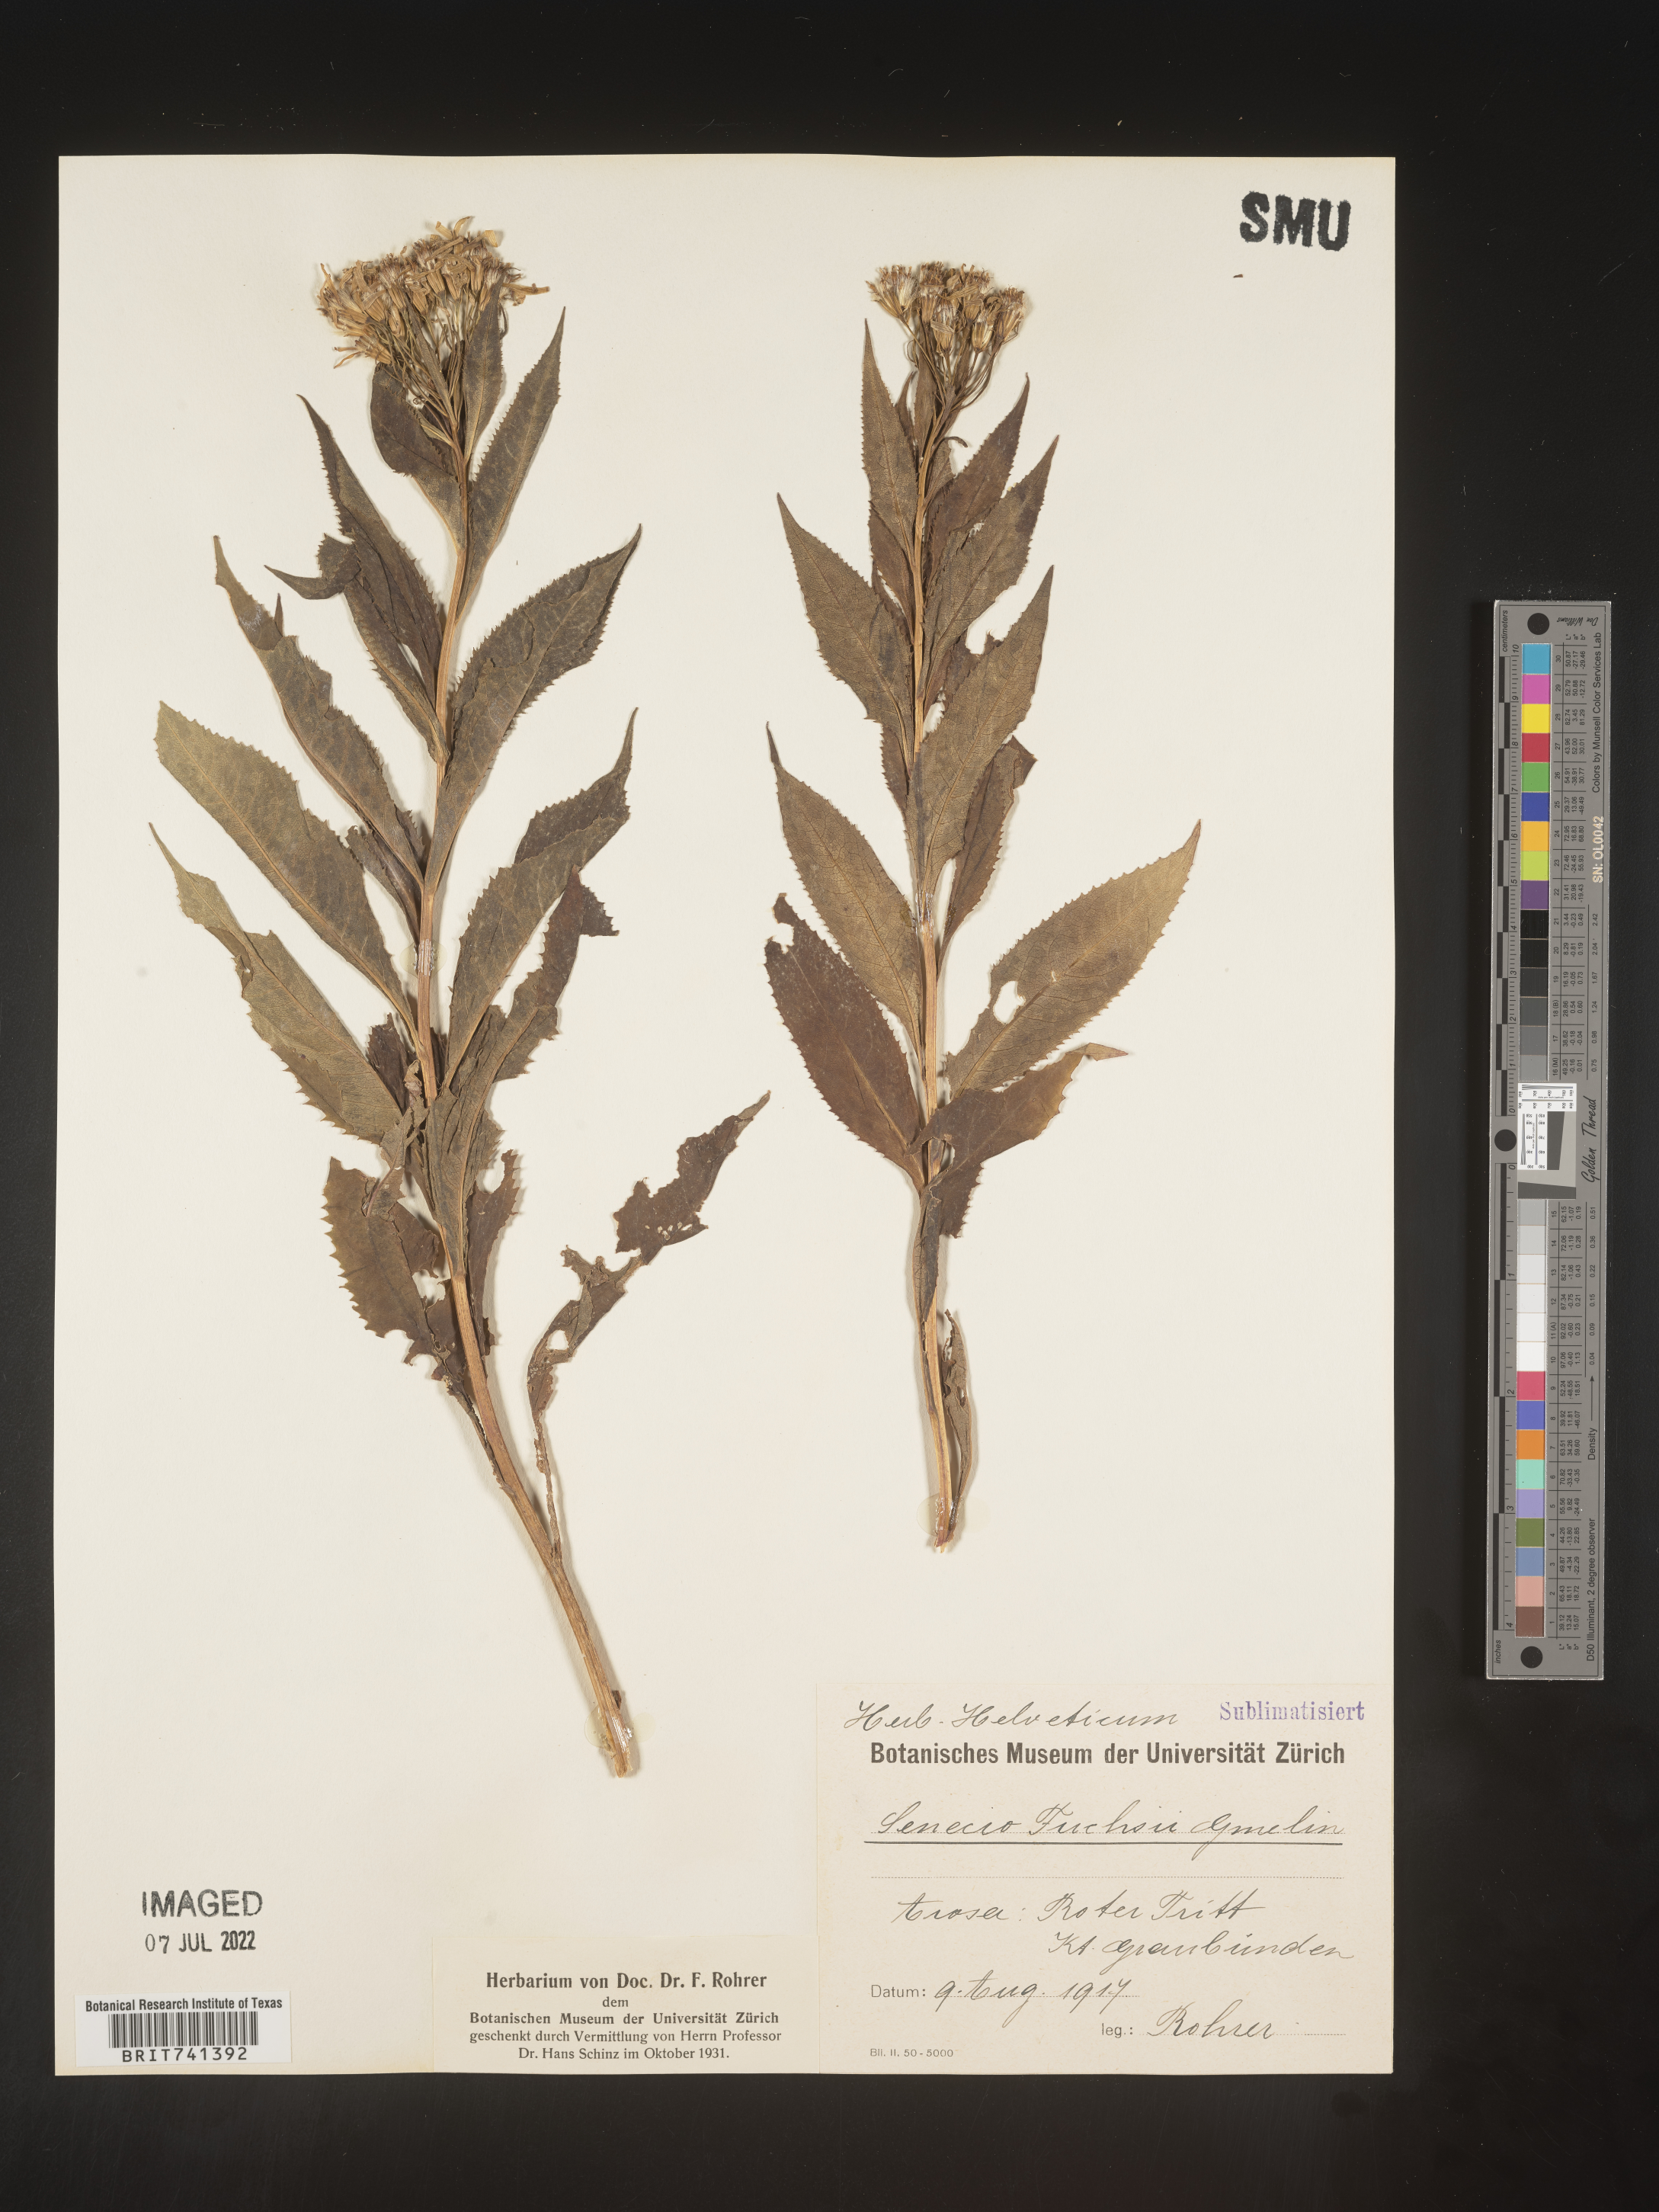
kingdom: Plantae
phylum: Tracheophyta
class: Magnoliopsida
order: Asterales
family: Asteraceae
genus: Senecio
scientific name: Senecio
